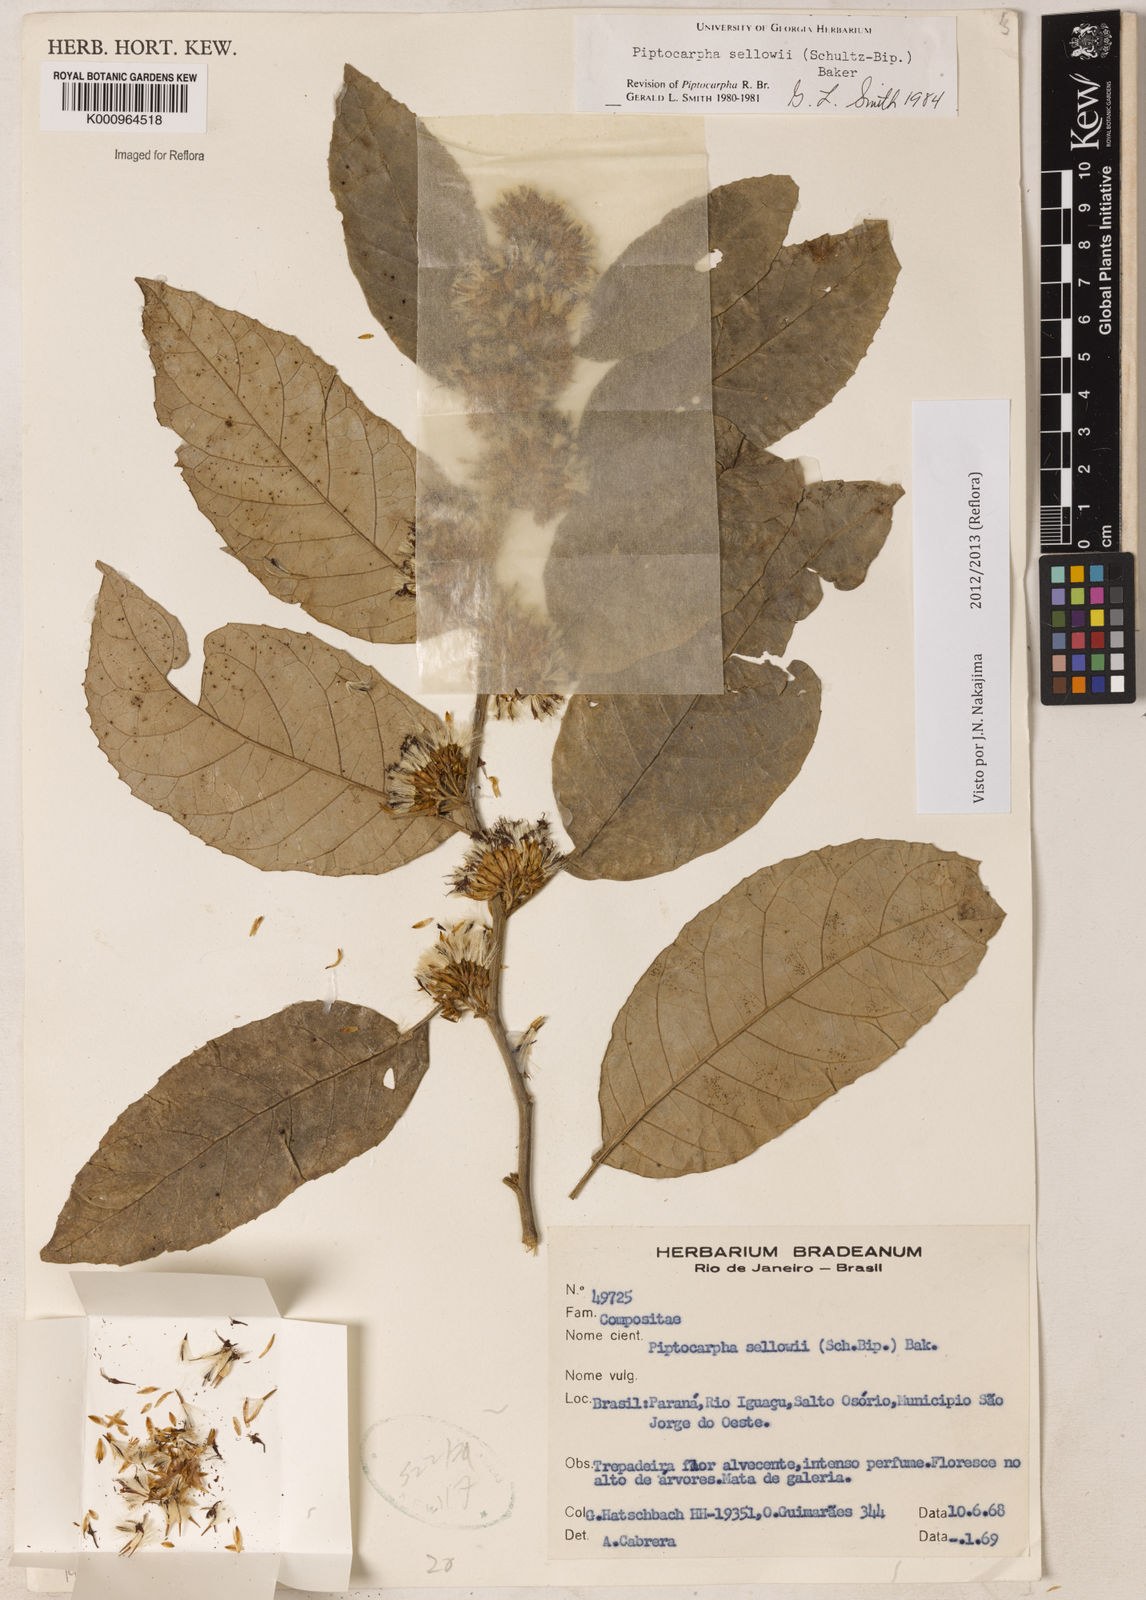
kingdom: Plantae
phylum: Tracheophyta
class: Magnoliopsida
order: Asterales
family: Asteraceae
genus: Piptocarpha
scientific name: Piptocarpha
